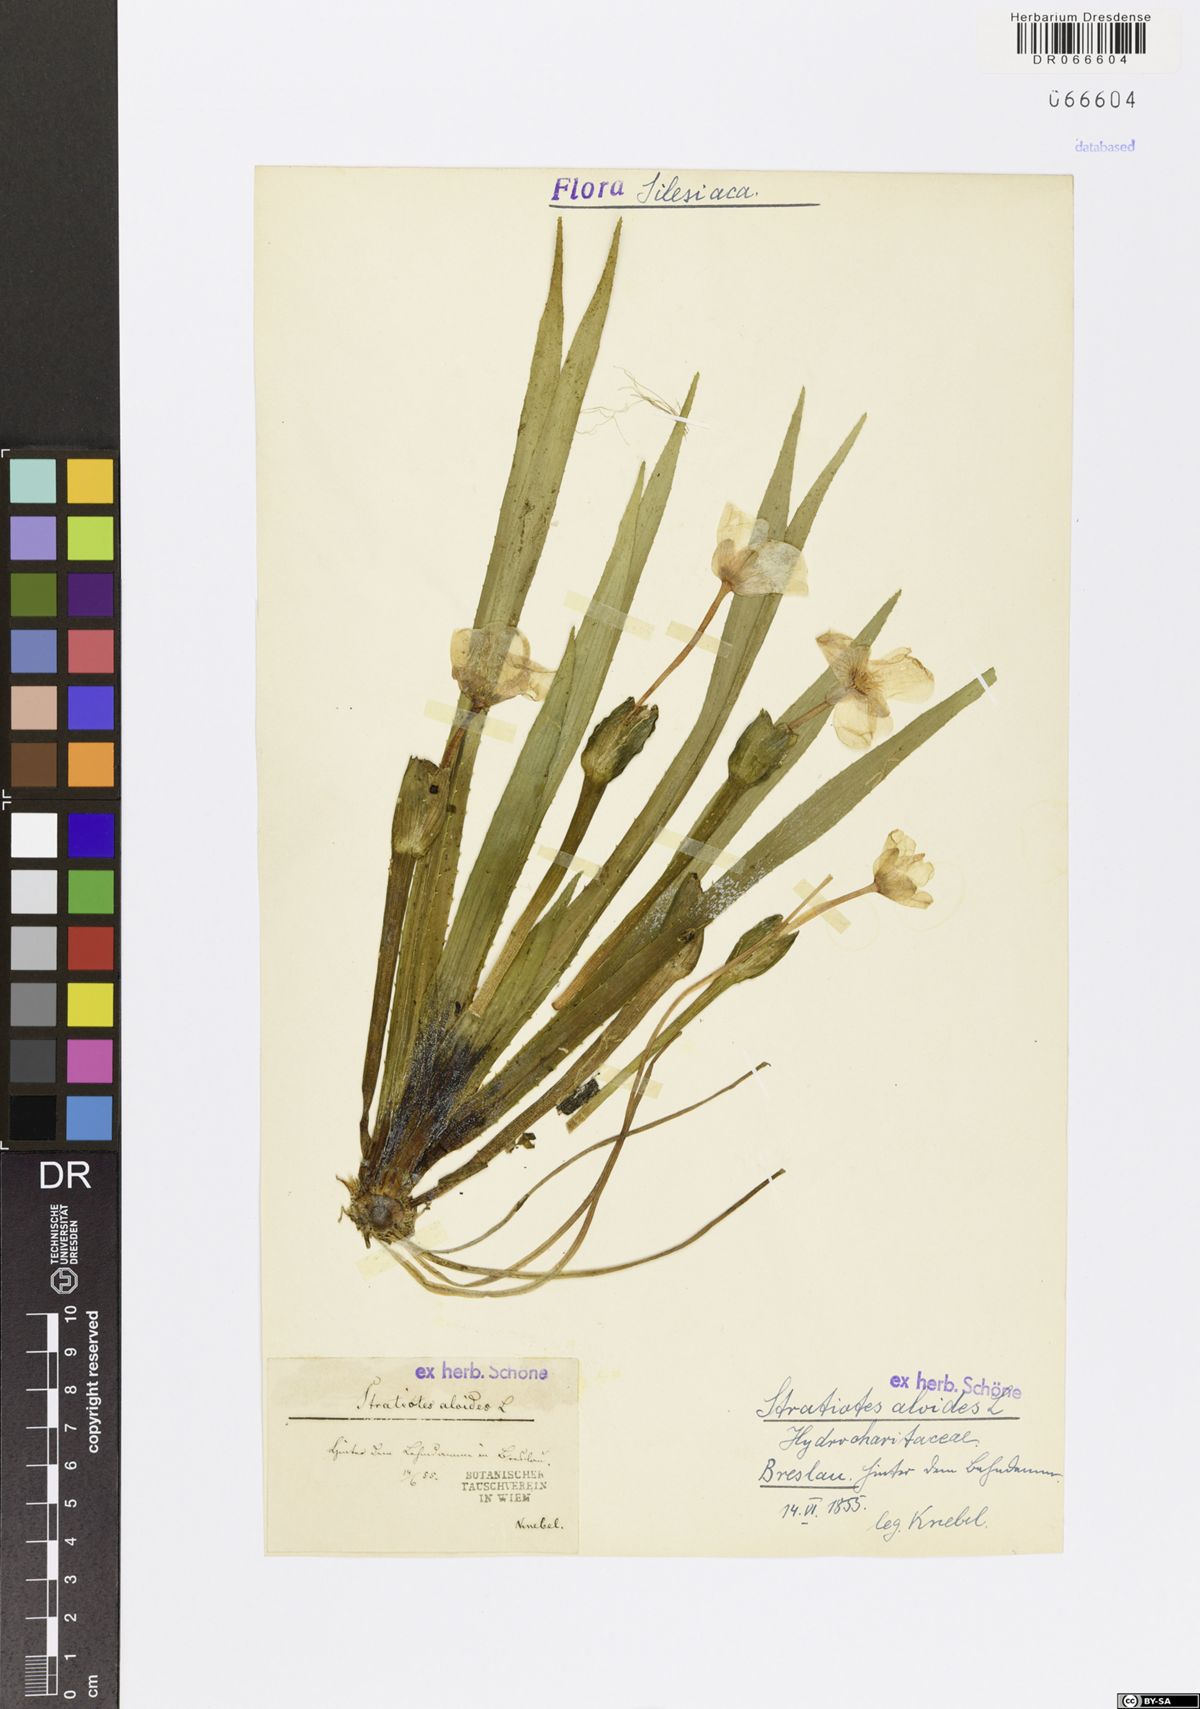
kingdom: Plantae
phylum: Tracheophyta
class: Liliopsida
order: Alismatales
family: Hydrocharitaceae
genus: Stratiotes
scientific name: Stratiotes aloides
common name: Water-soldier
